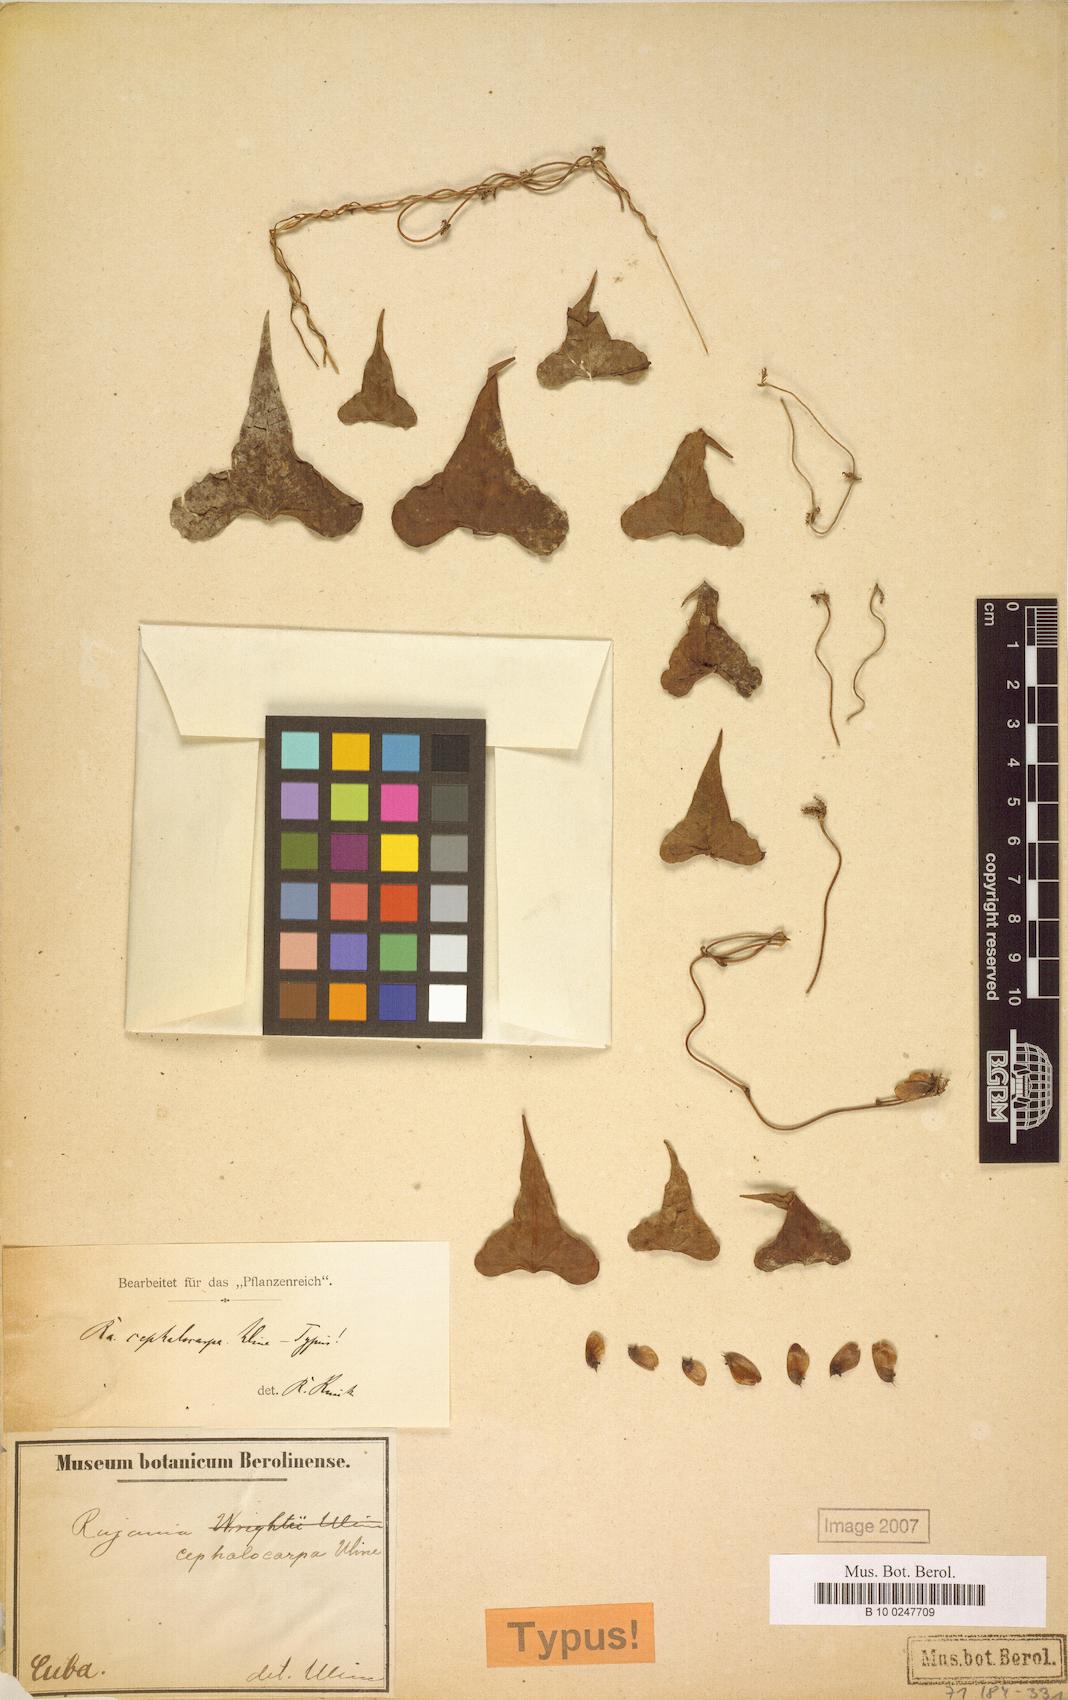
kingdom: Plantae
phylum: Tracheophyta
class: Liliopsida
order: Dioscoreales
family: Dioscoreaceae
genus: Dioscorea
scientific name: Dioscorea cephalocarpa
